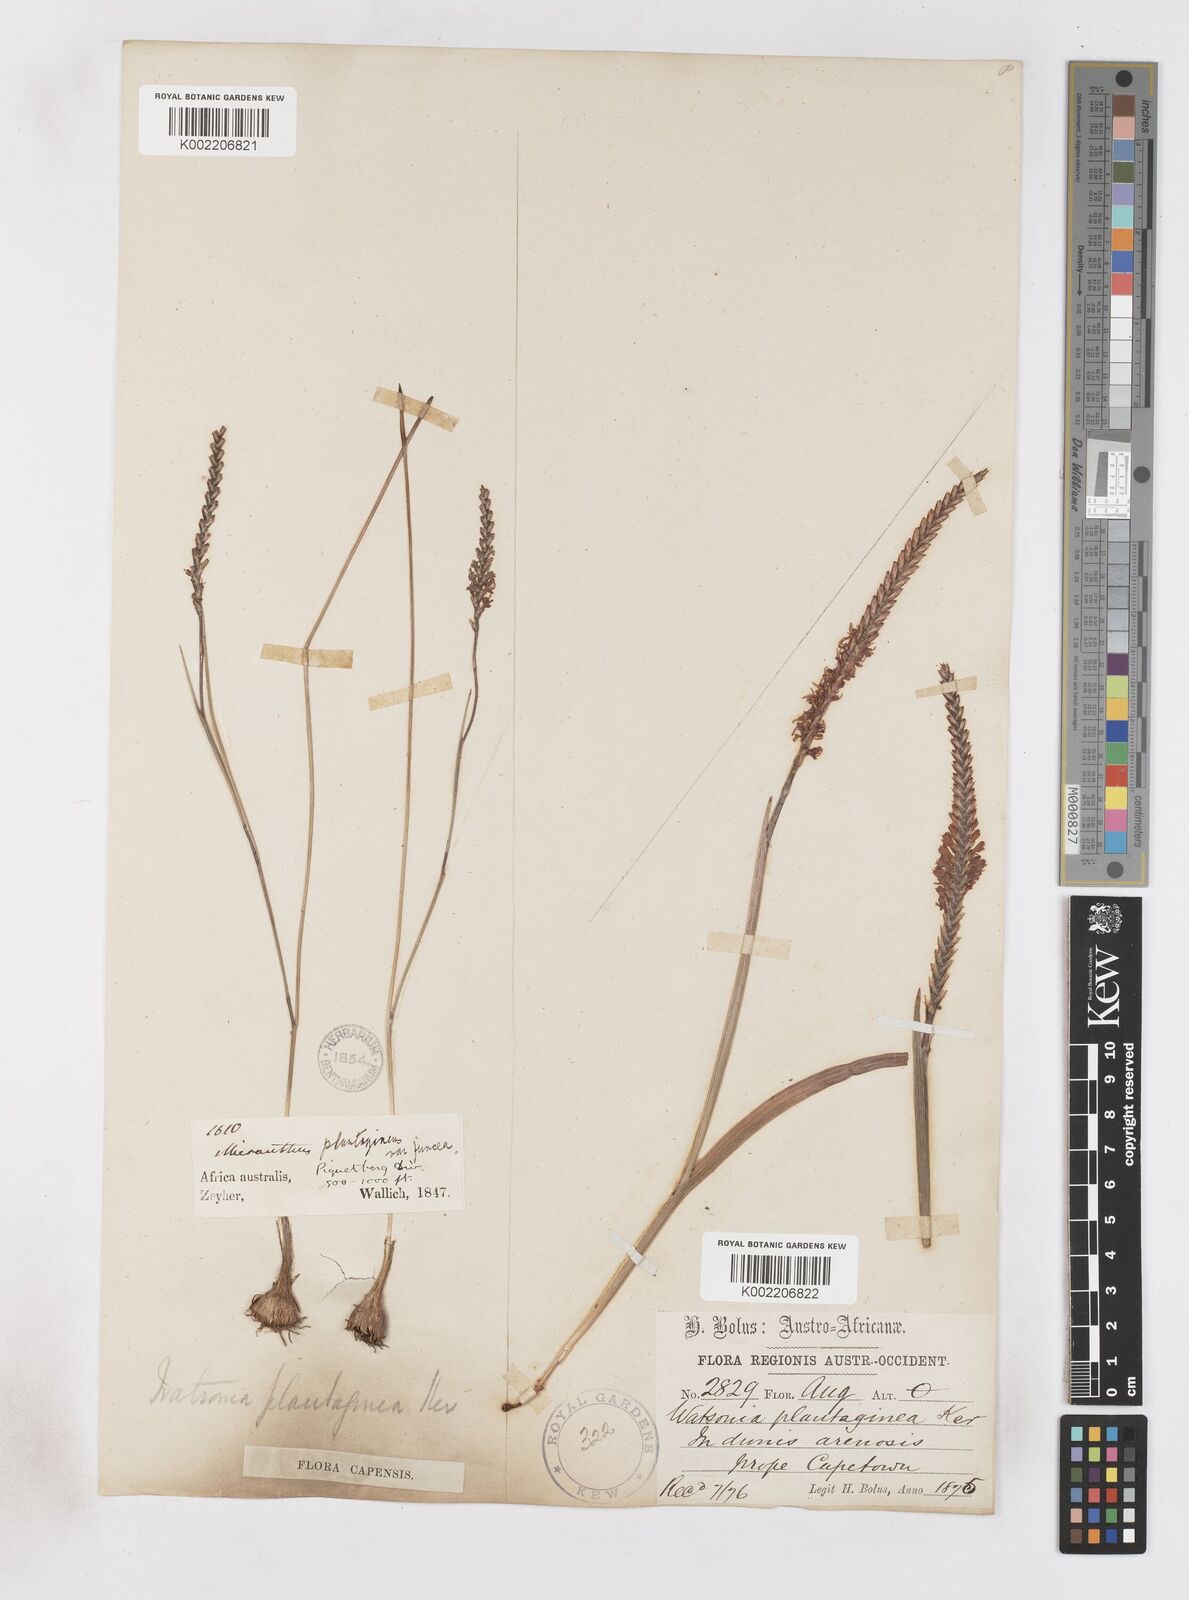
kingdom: Plantae
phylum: Tracheophyta
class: Liliopsida
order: Asparagales
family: Iridaceae
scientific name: Iridaceae
